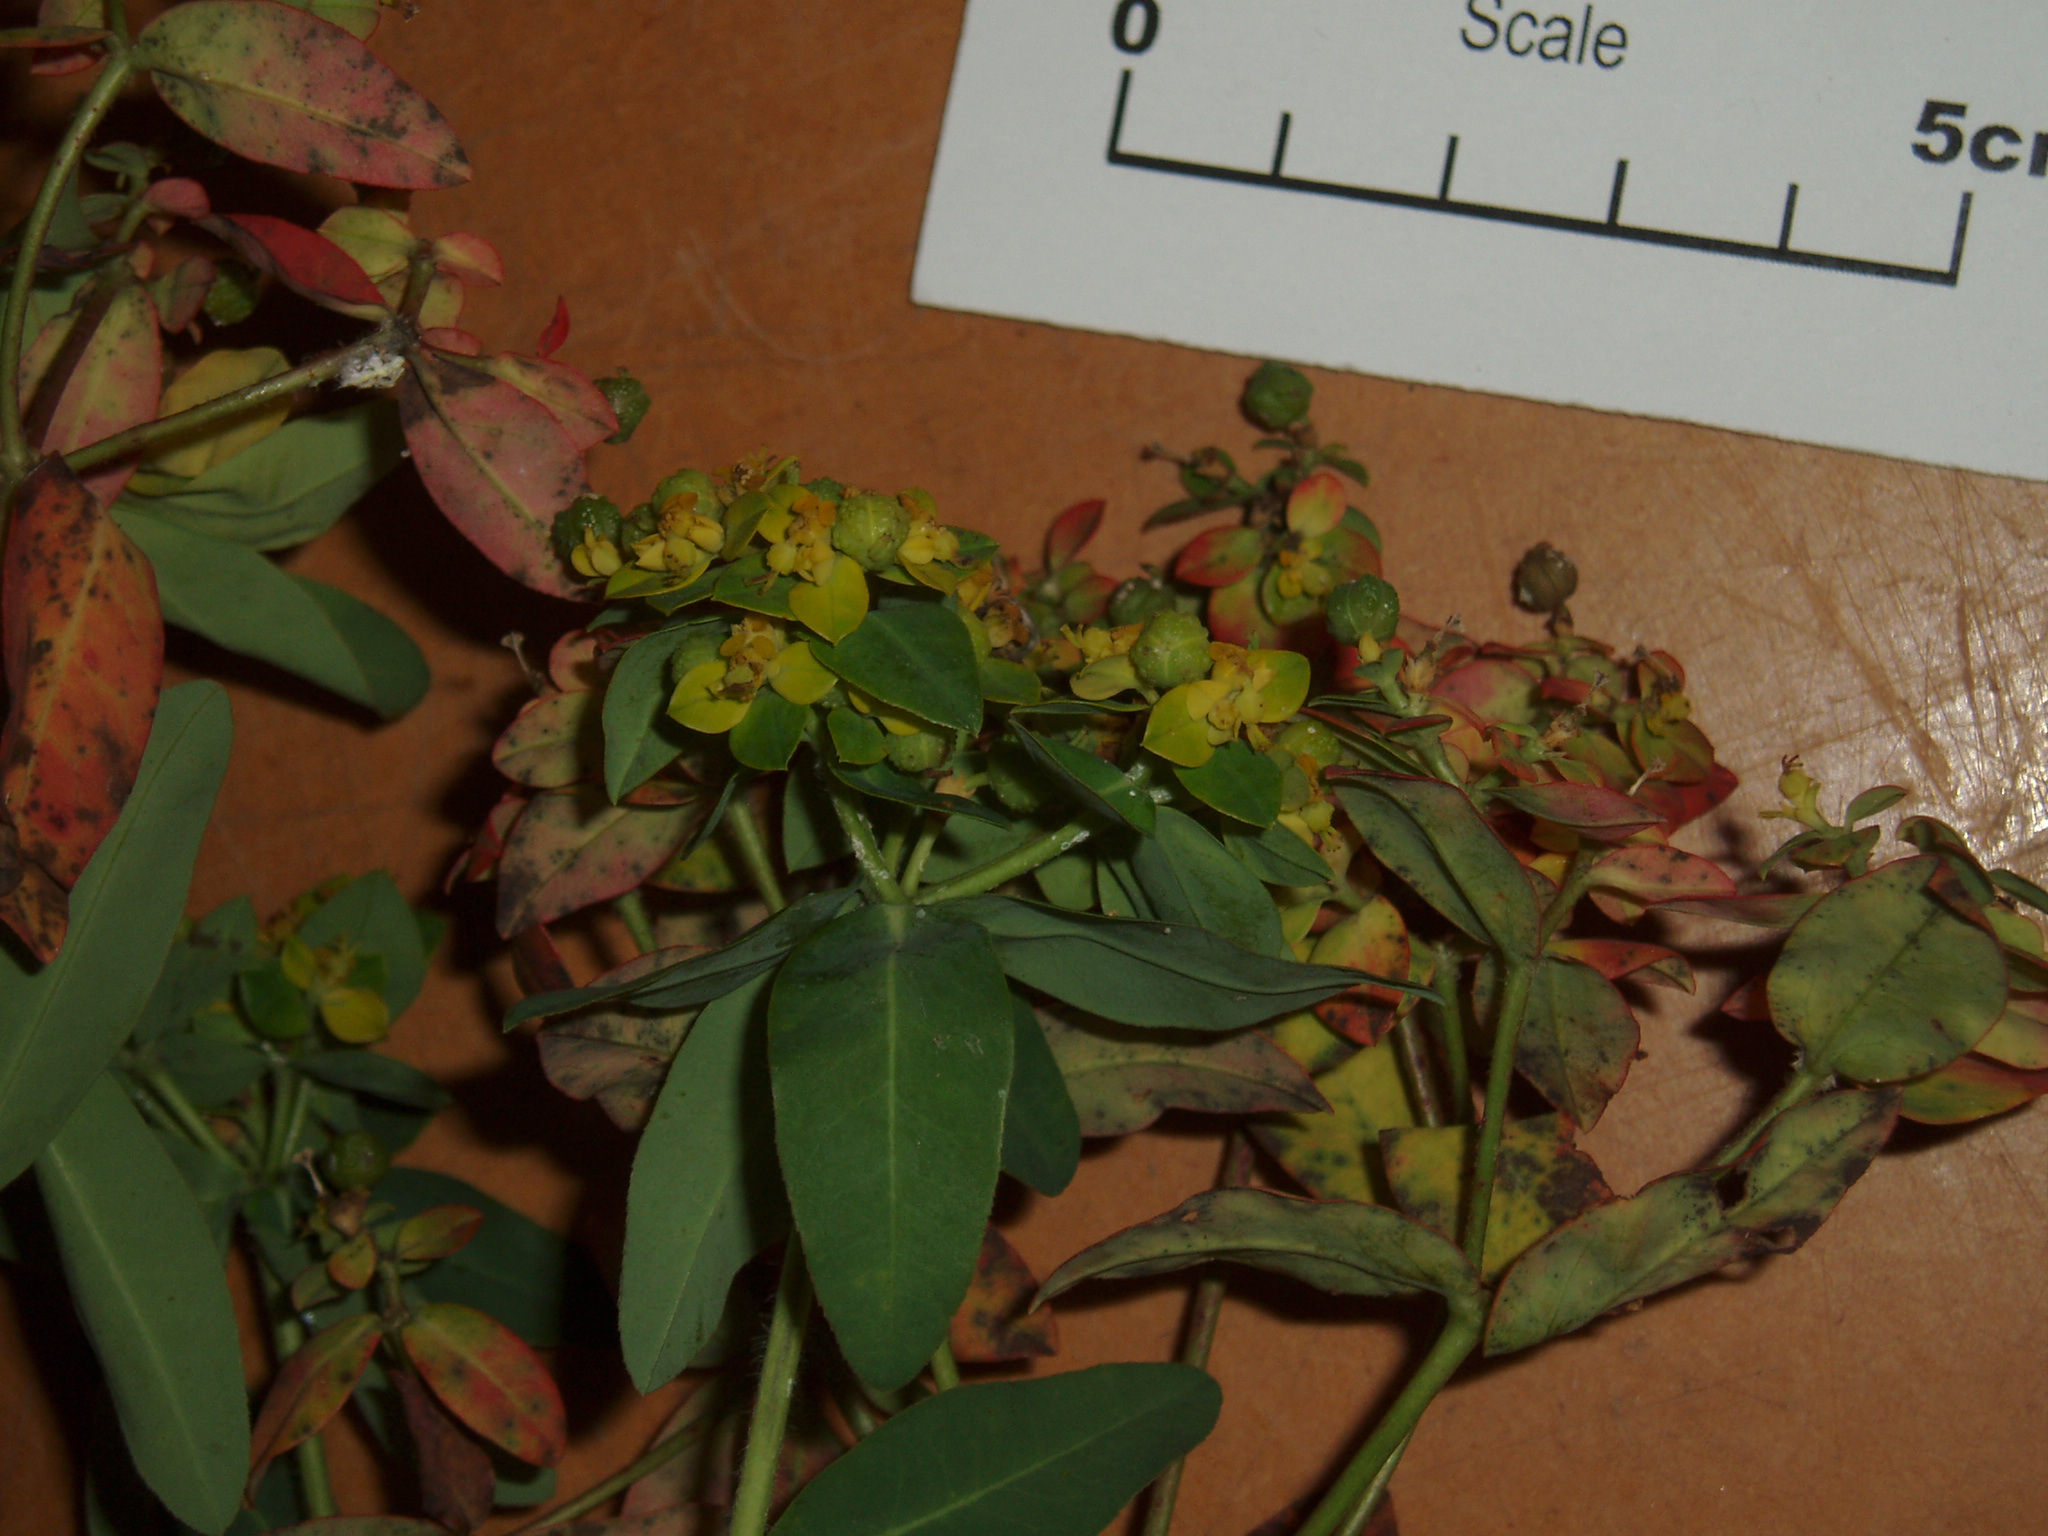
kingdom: Plantae
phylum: Tracheophyta
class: Magnoliopsida
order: Malpighiales
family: Euphorbiaceae
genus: Euphorbia
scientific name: Euphorbia oblongata
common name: Balkan spurge
